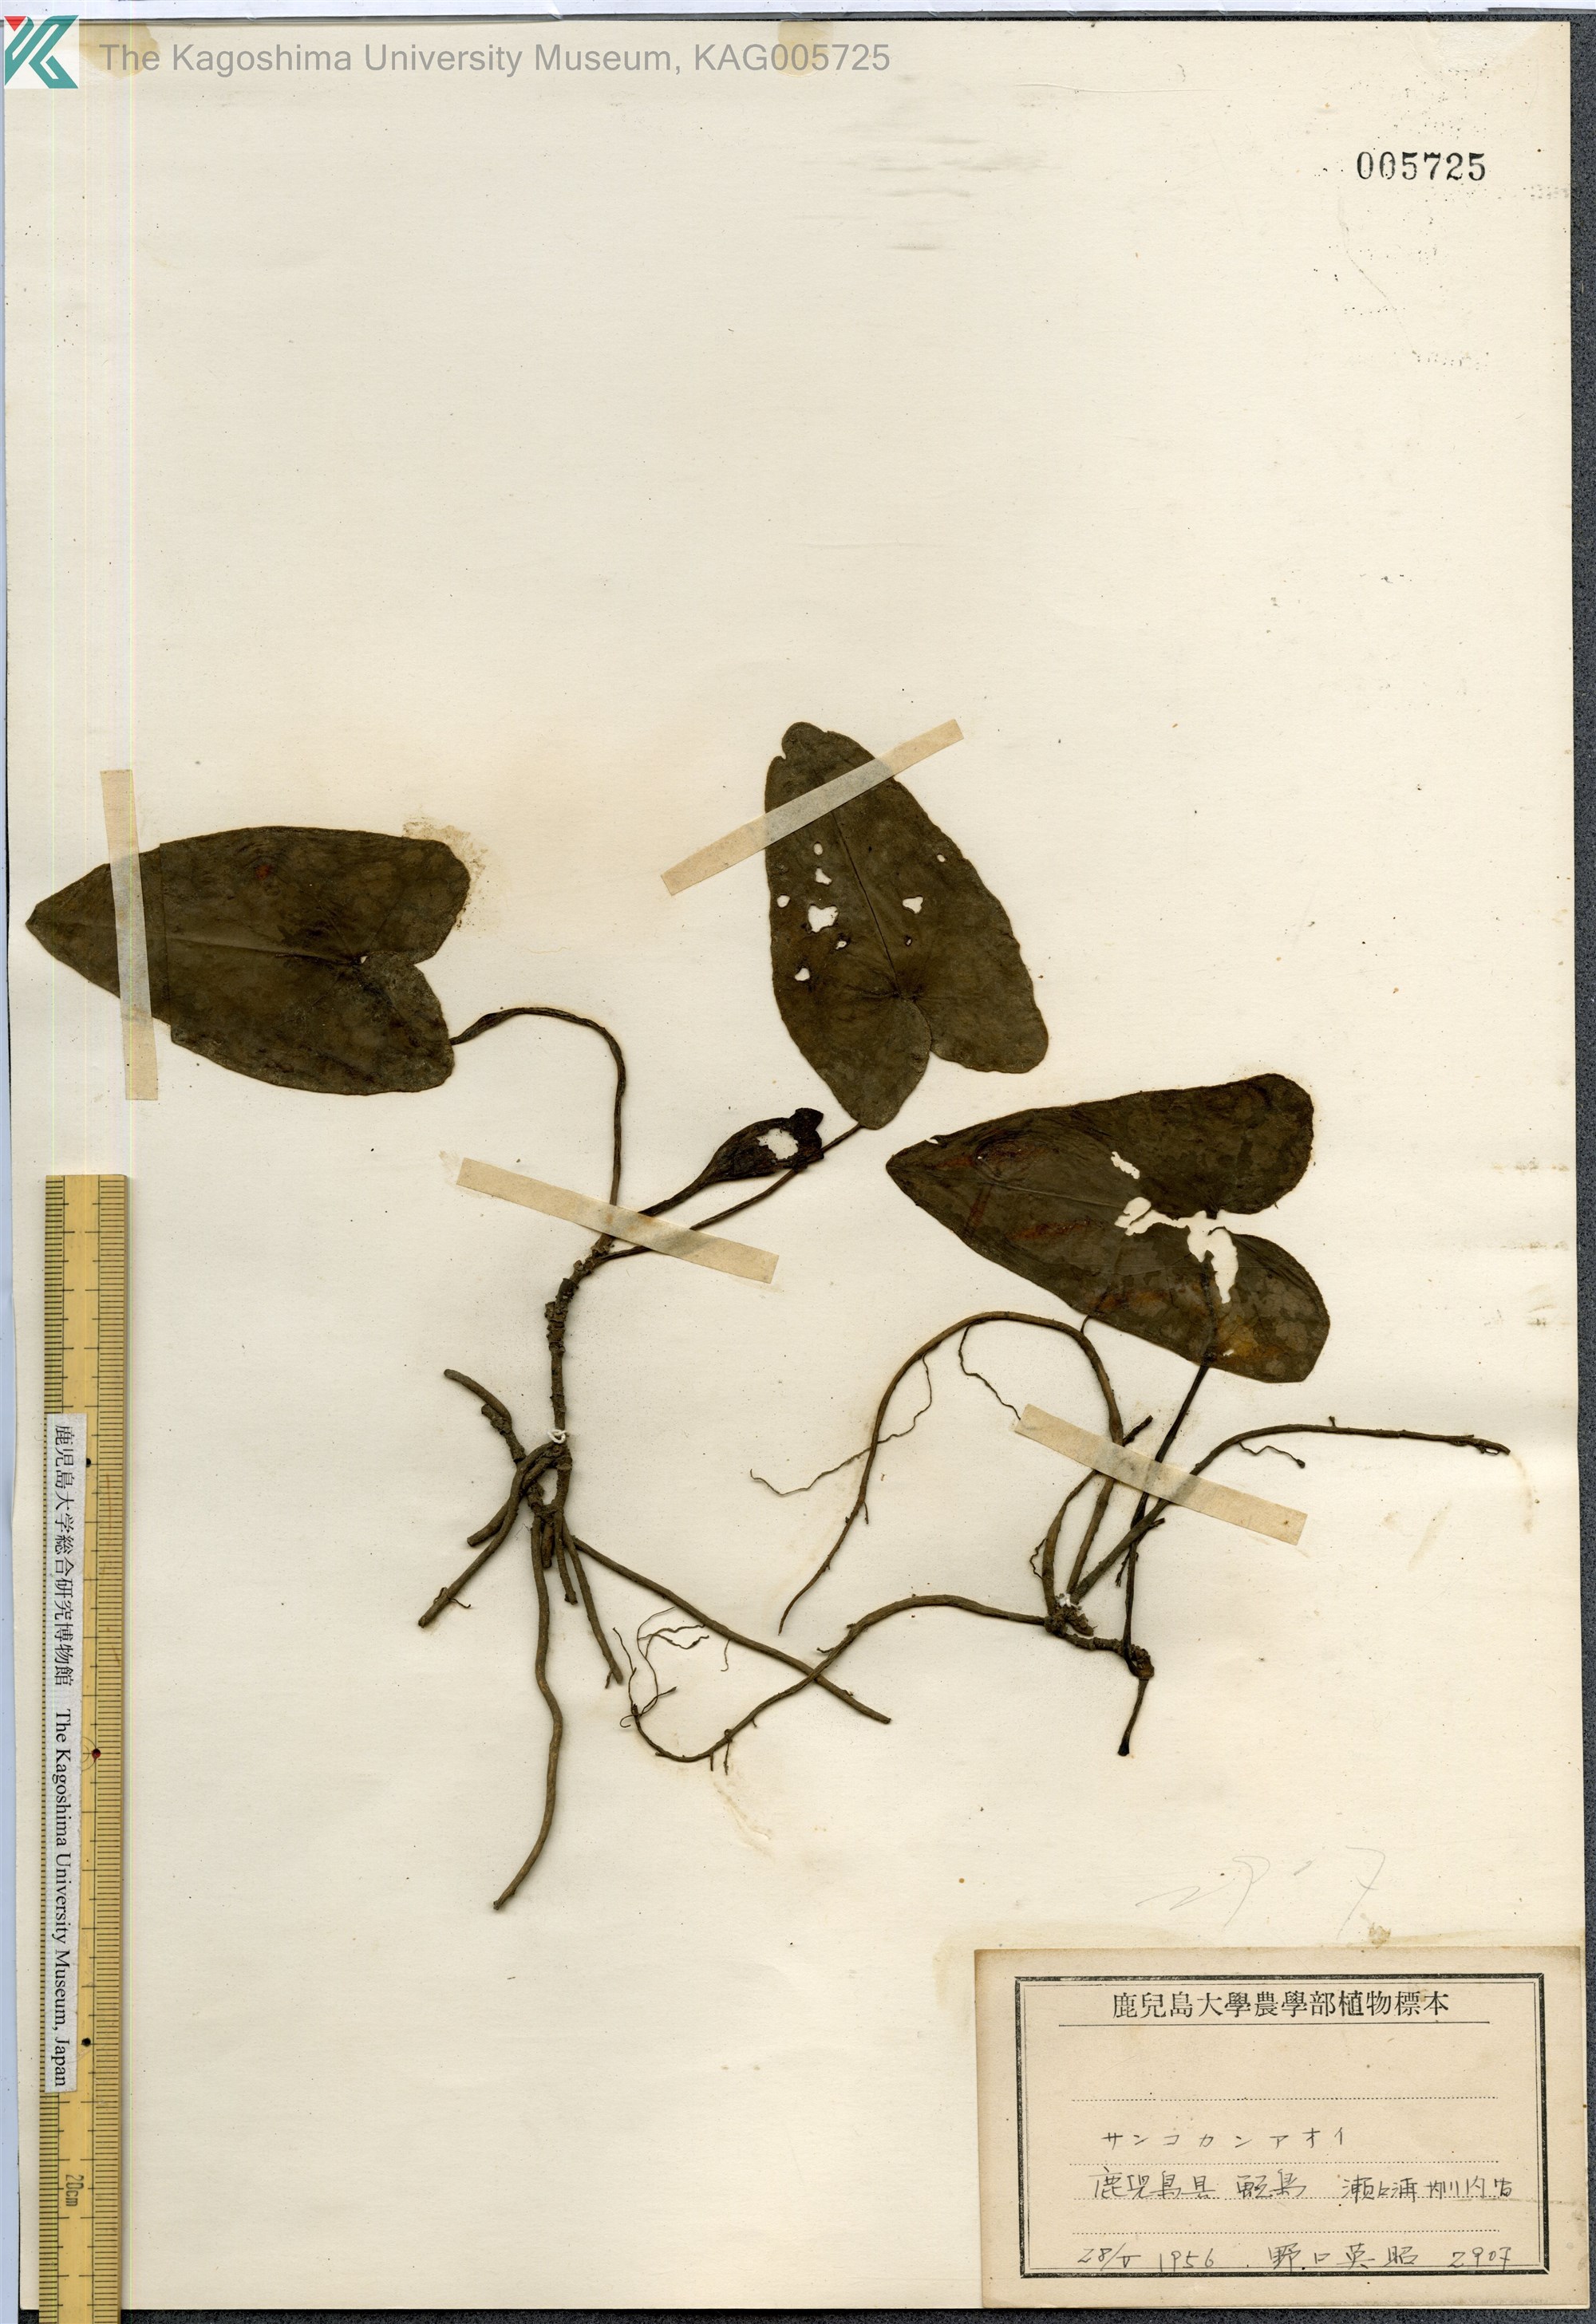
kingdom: Plantae
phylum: Tracheophyta
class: Magnoliopsida
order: Piperales
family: Aristolochiaceae
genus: Asarum
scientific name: Asarum trigynum
